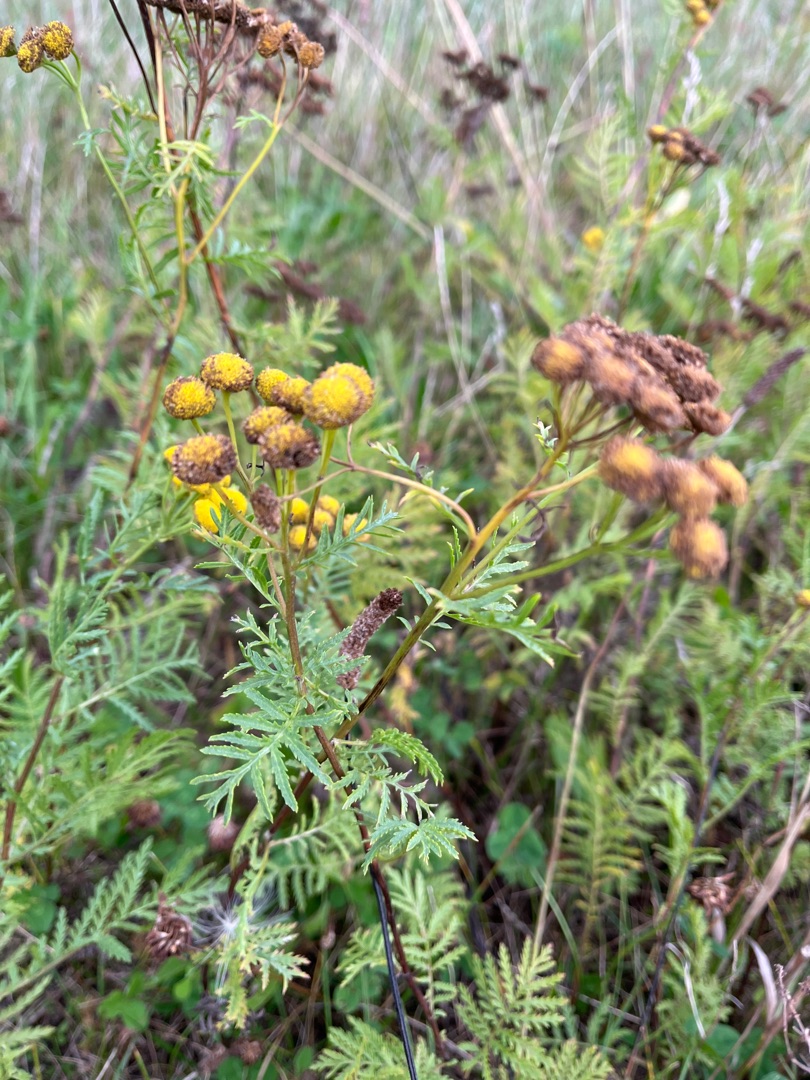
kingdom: Plantae
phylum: Tracheophyta
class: Magnoliopsida
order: Asterales
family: Asteraceae
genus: Tanacetum
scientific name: Tanacetum vulgare
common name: Rejnfan
